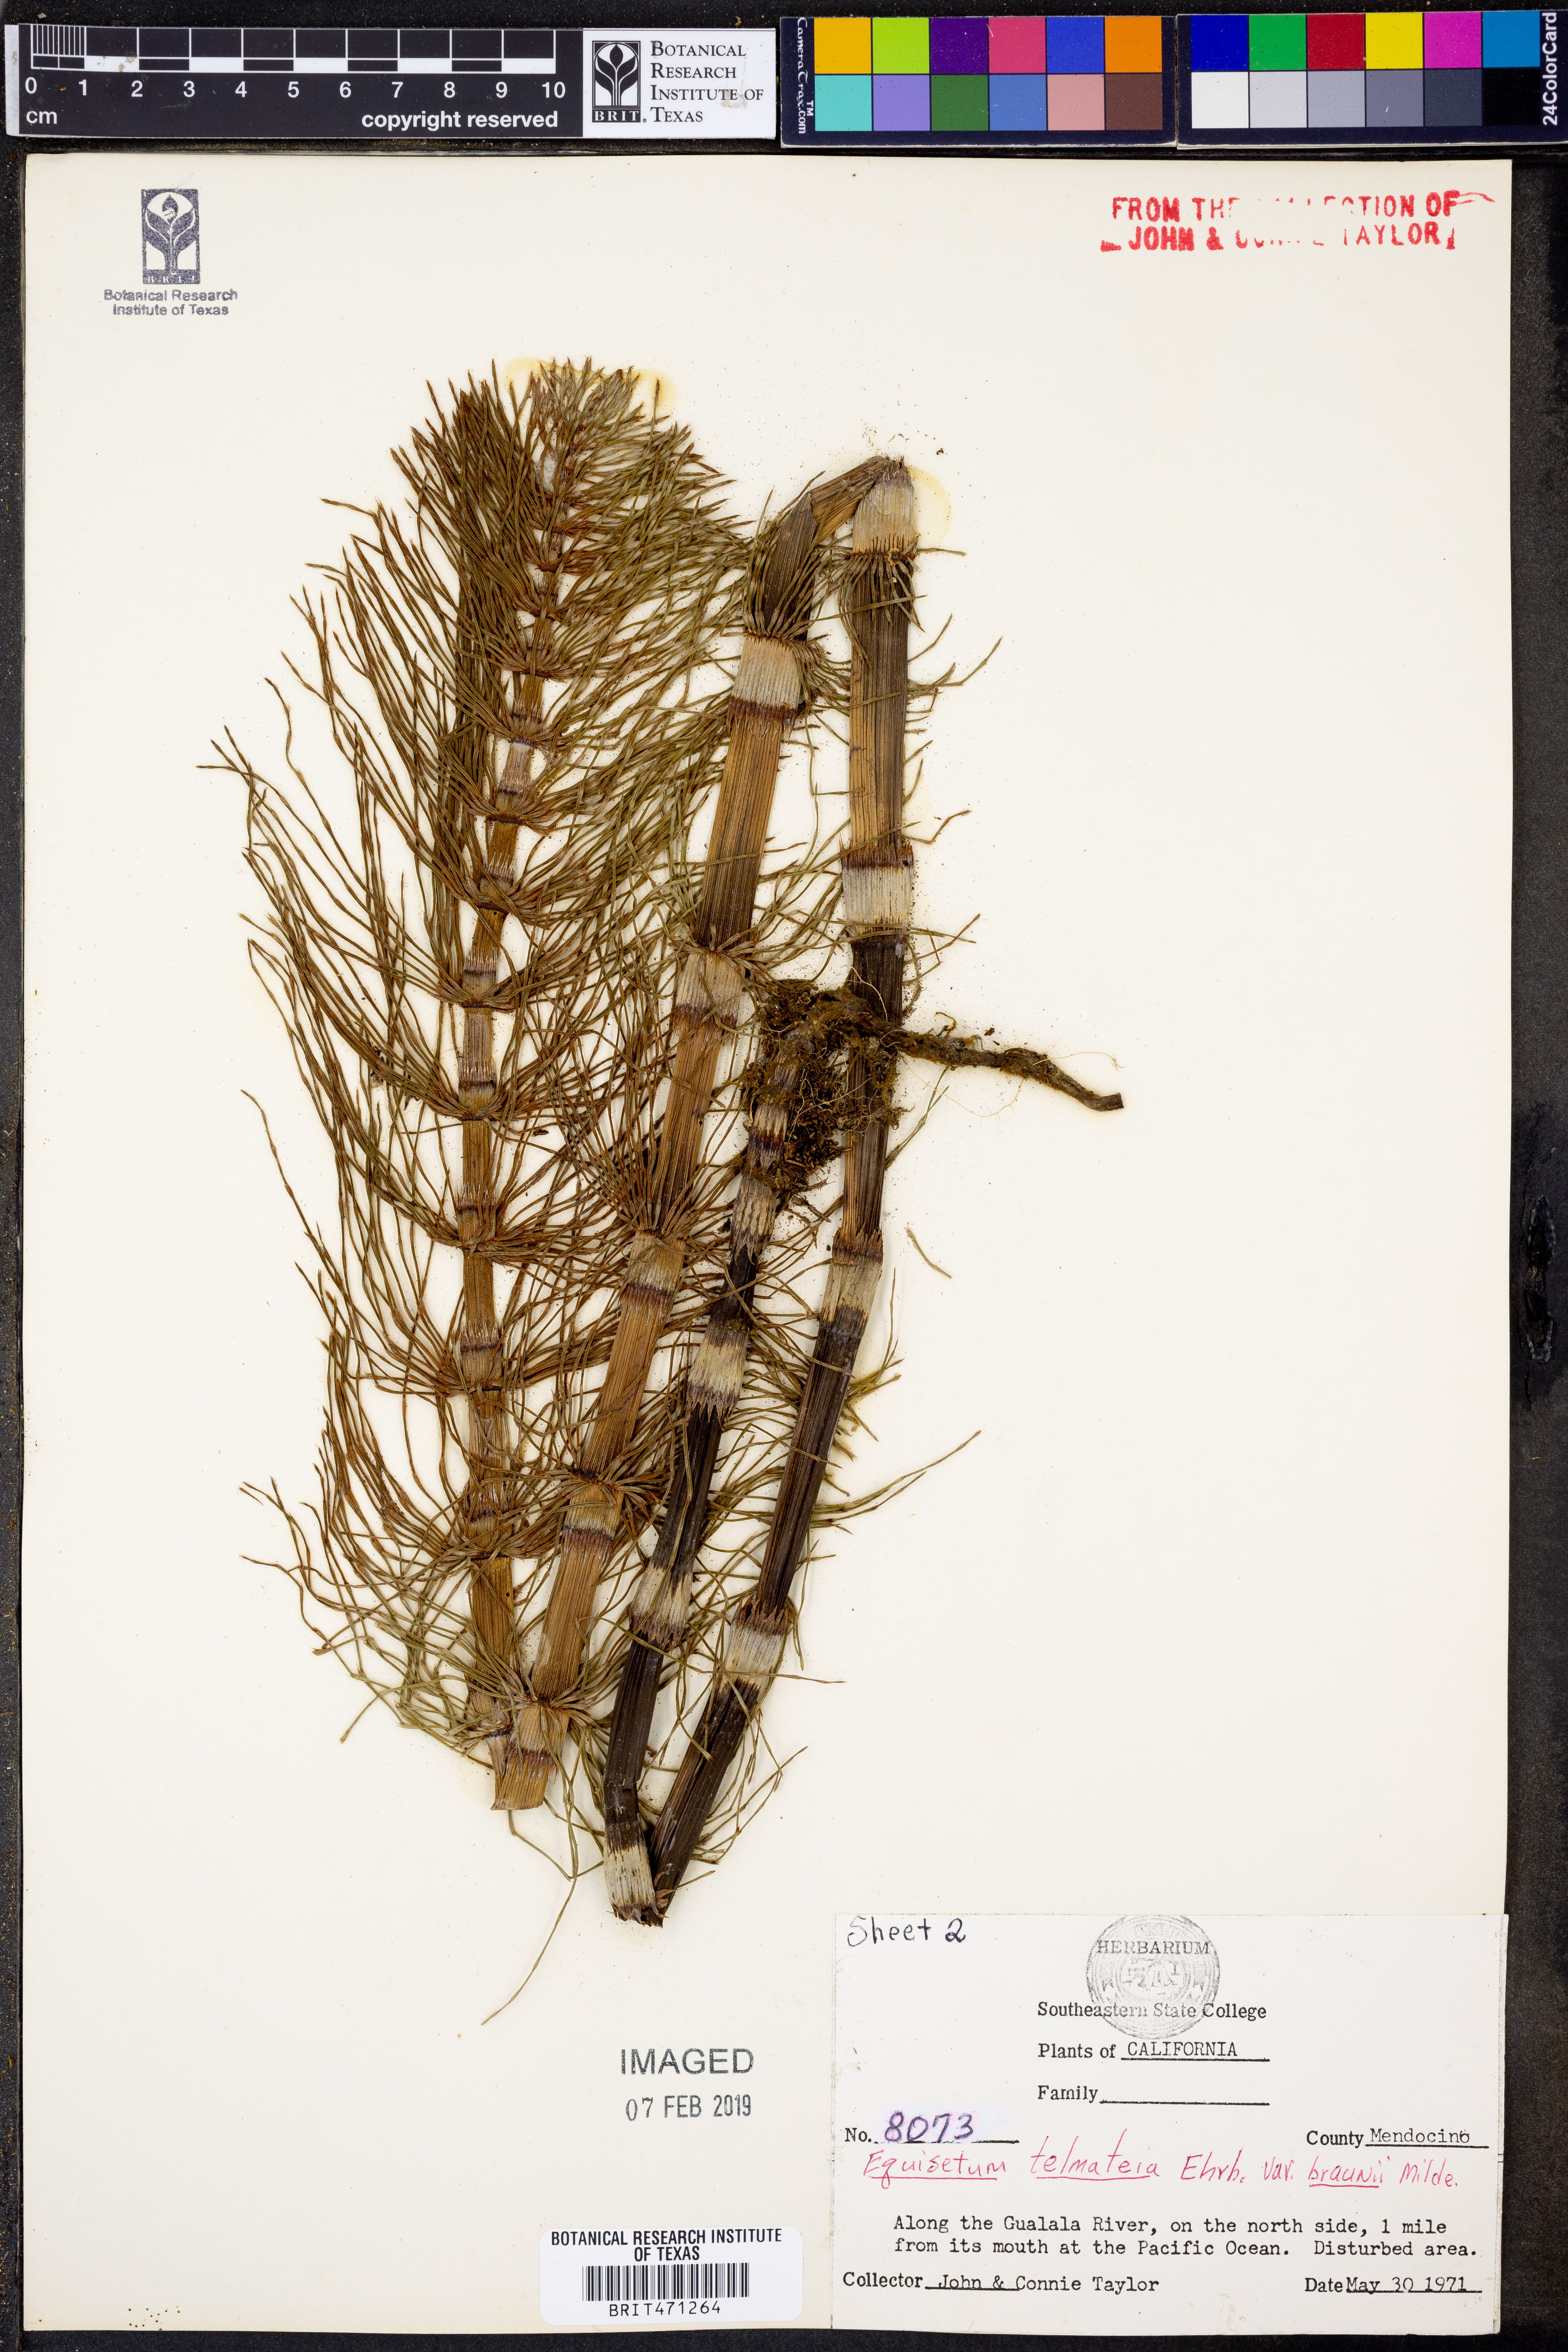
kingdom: Plantae
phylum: Tracheophyta
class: Polypodiopsida
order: Equisetales
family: Equisetaceae
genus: Equisetum
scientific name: Equisetum braunii
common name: Braun's horsetail
